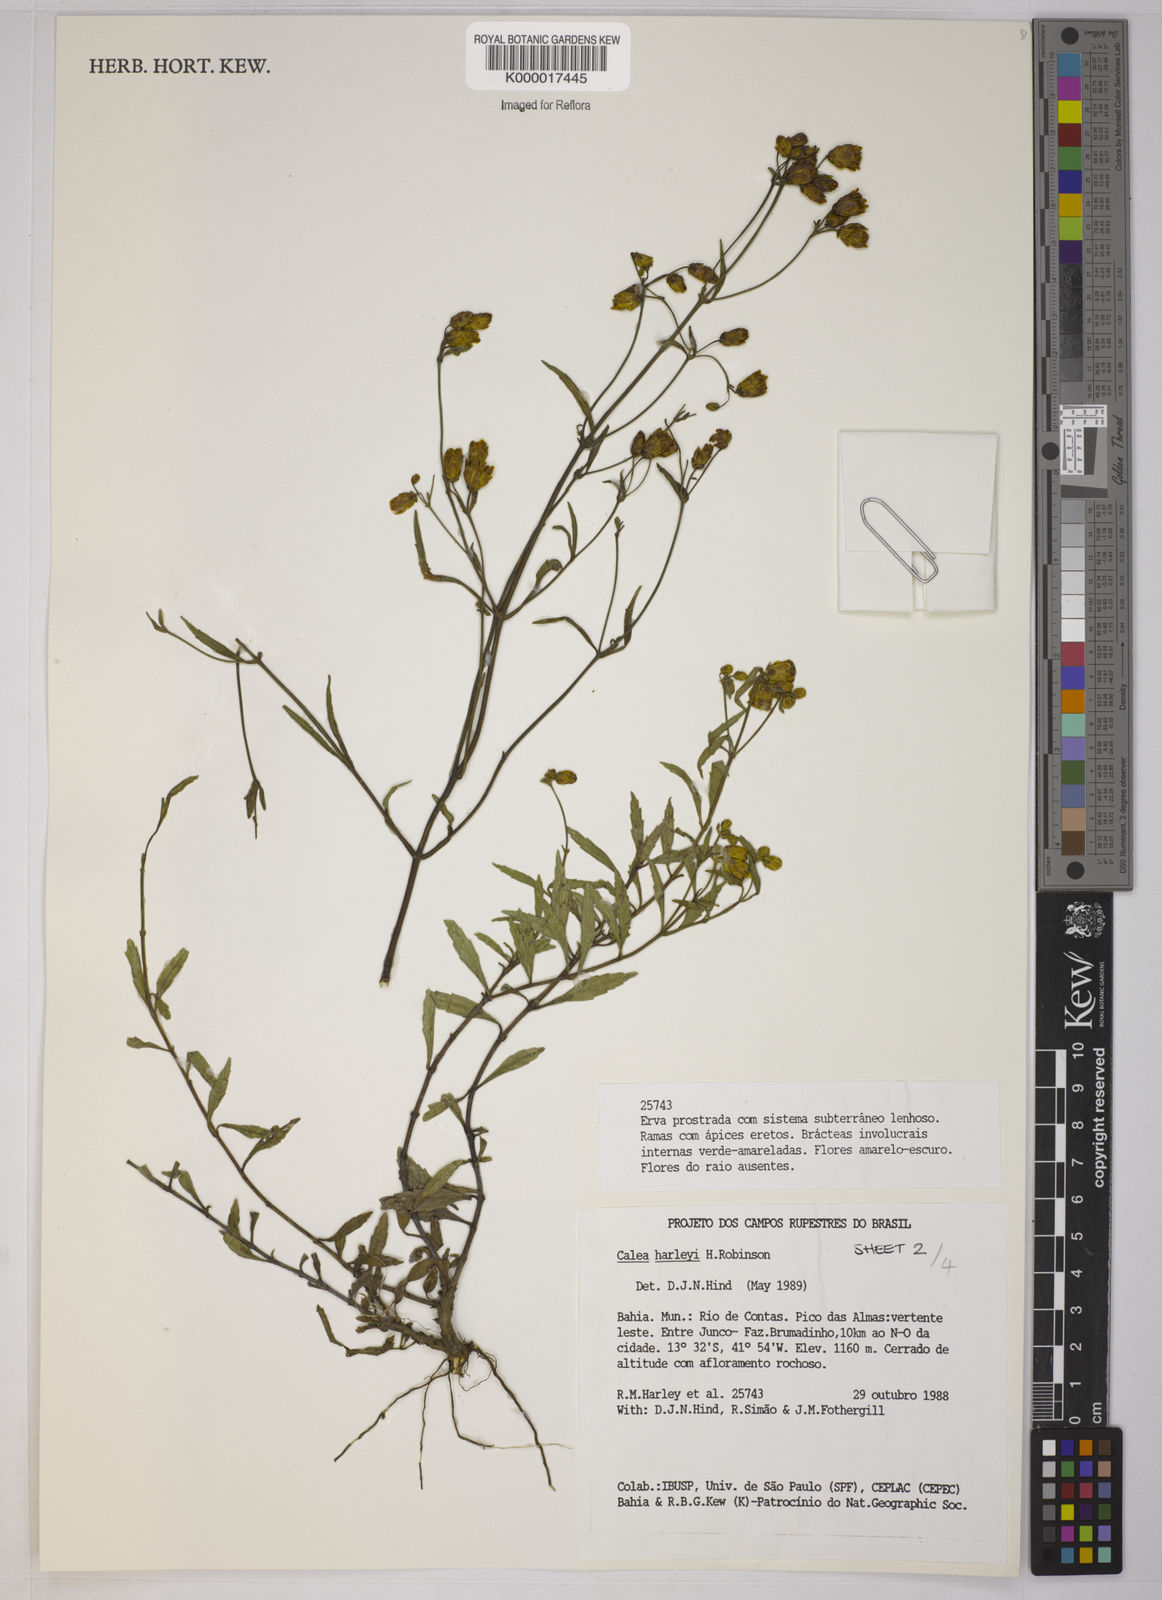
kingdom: Plantae
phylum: Tracheophyta
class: Magnoliopsida
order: Asterales
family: Asteraceae
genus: Calea
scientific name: Calea harleyi
